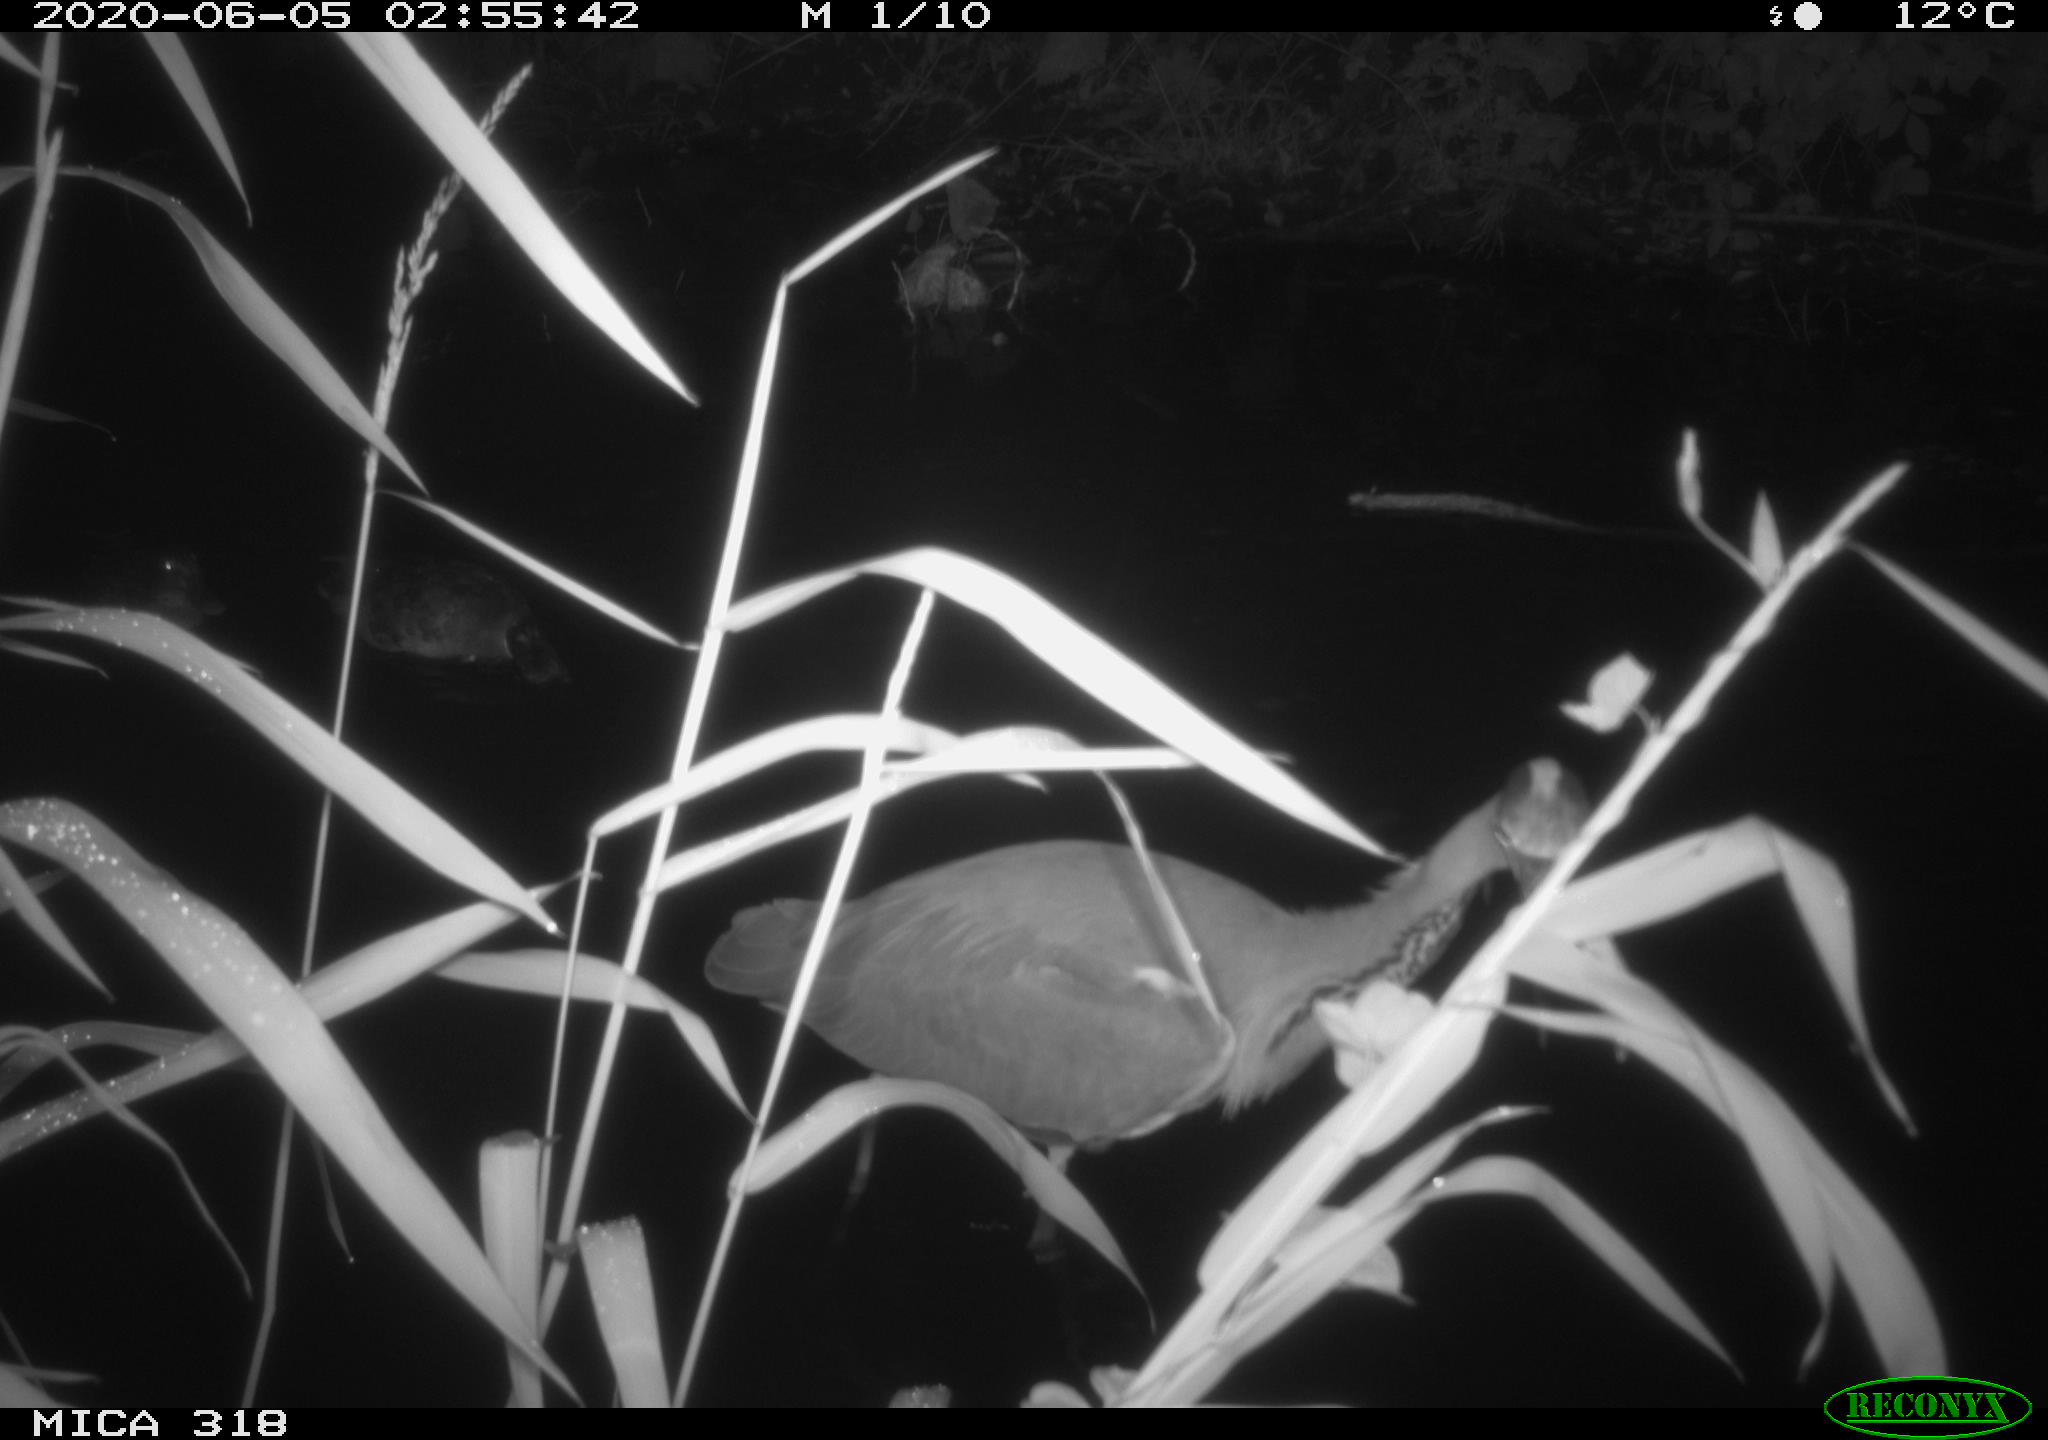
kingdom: Animalia
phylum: Chordata
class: Aves
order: Anseriformes
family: Anatidae
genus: Anas
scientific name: Anas platyrhynchos
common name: Mallard
